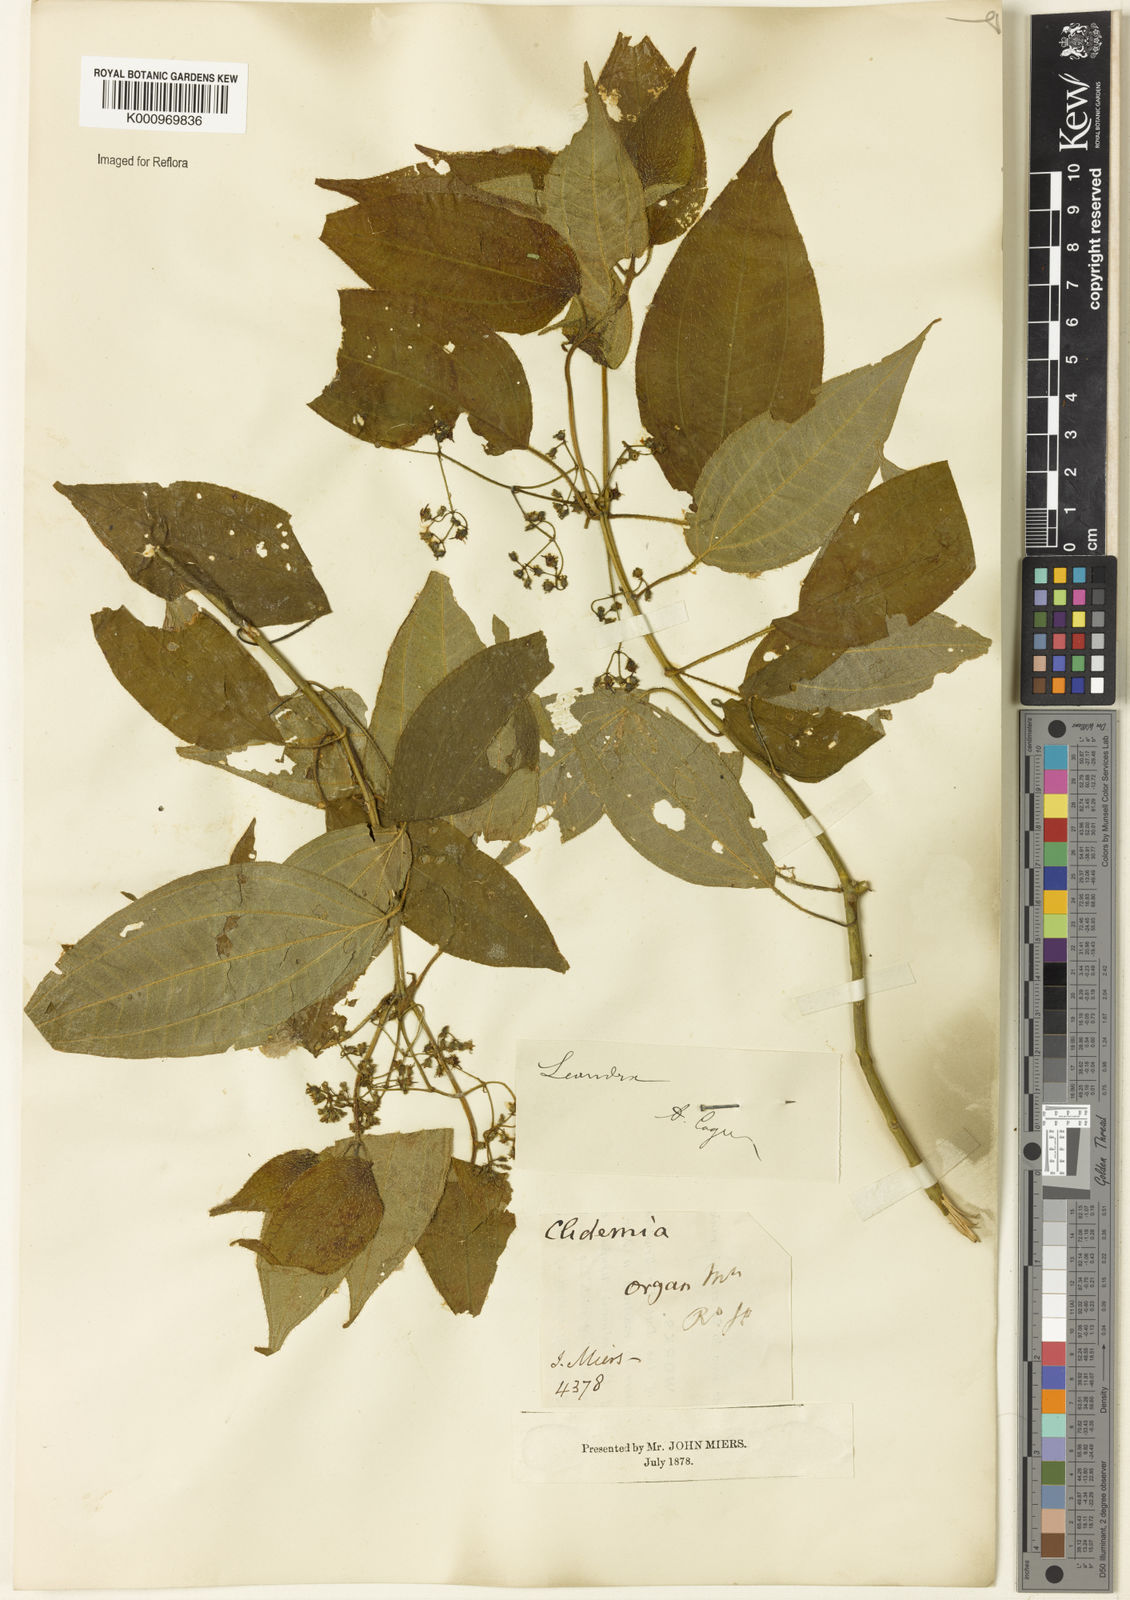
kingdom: Plantae
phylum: Tracheophyta
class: Magnoliopsida
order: Myrtales
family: Melastomataceae
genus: Miconia
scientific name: Miconia
